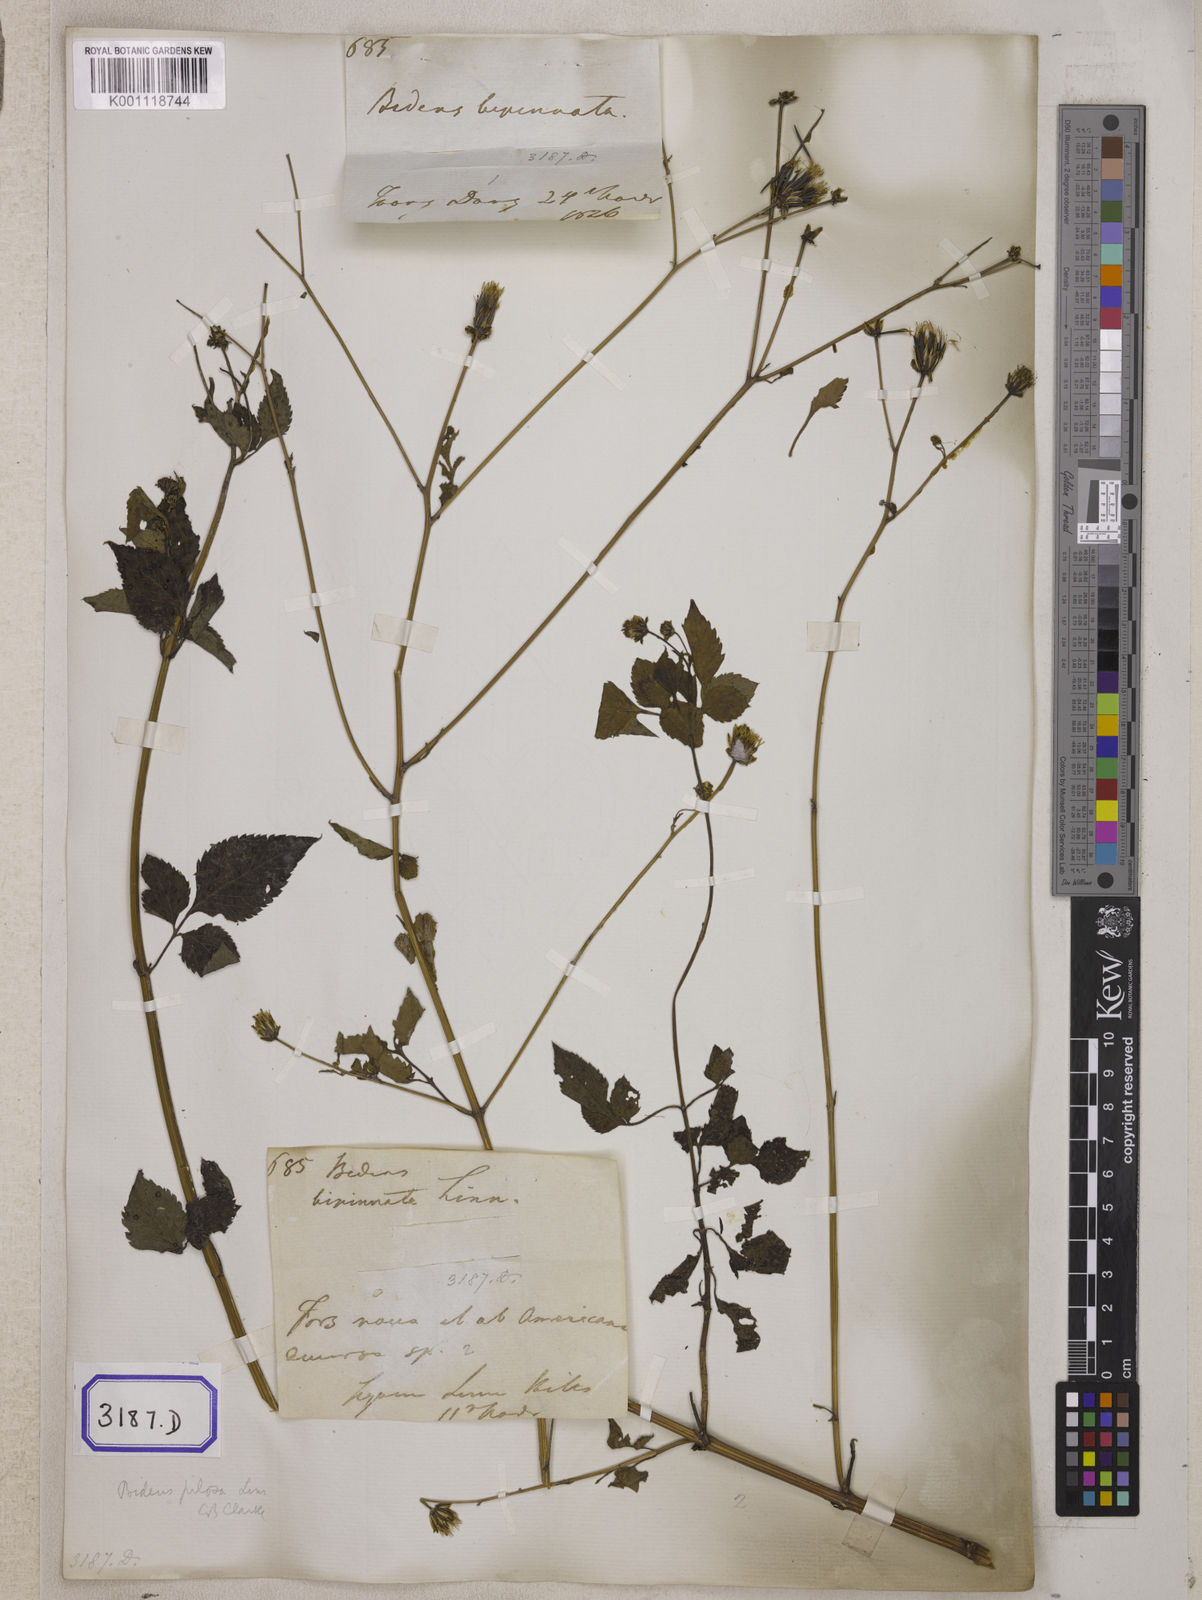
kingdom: Plantae
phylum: Tracheophyta
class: Magnoliopsida
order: Asterales
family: Asteraceae
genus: Bidens
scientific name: Bidens
